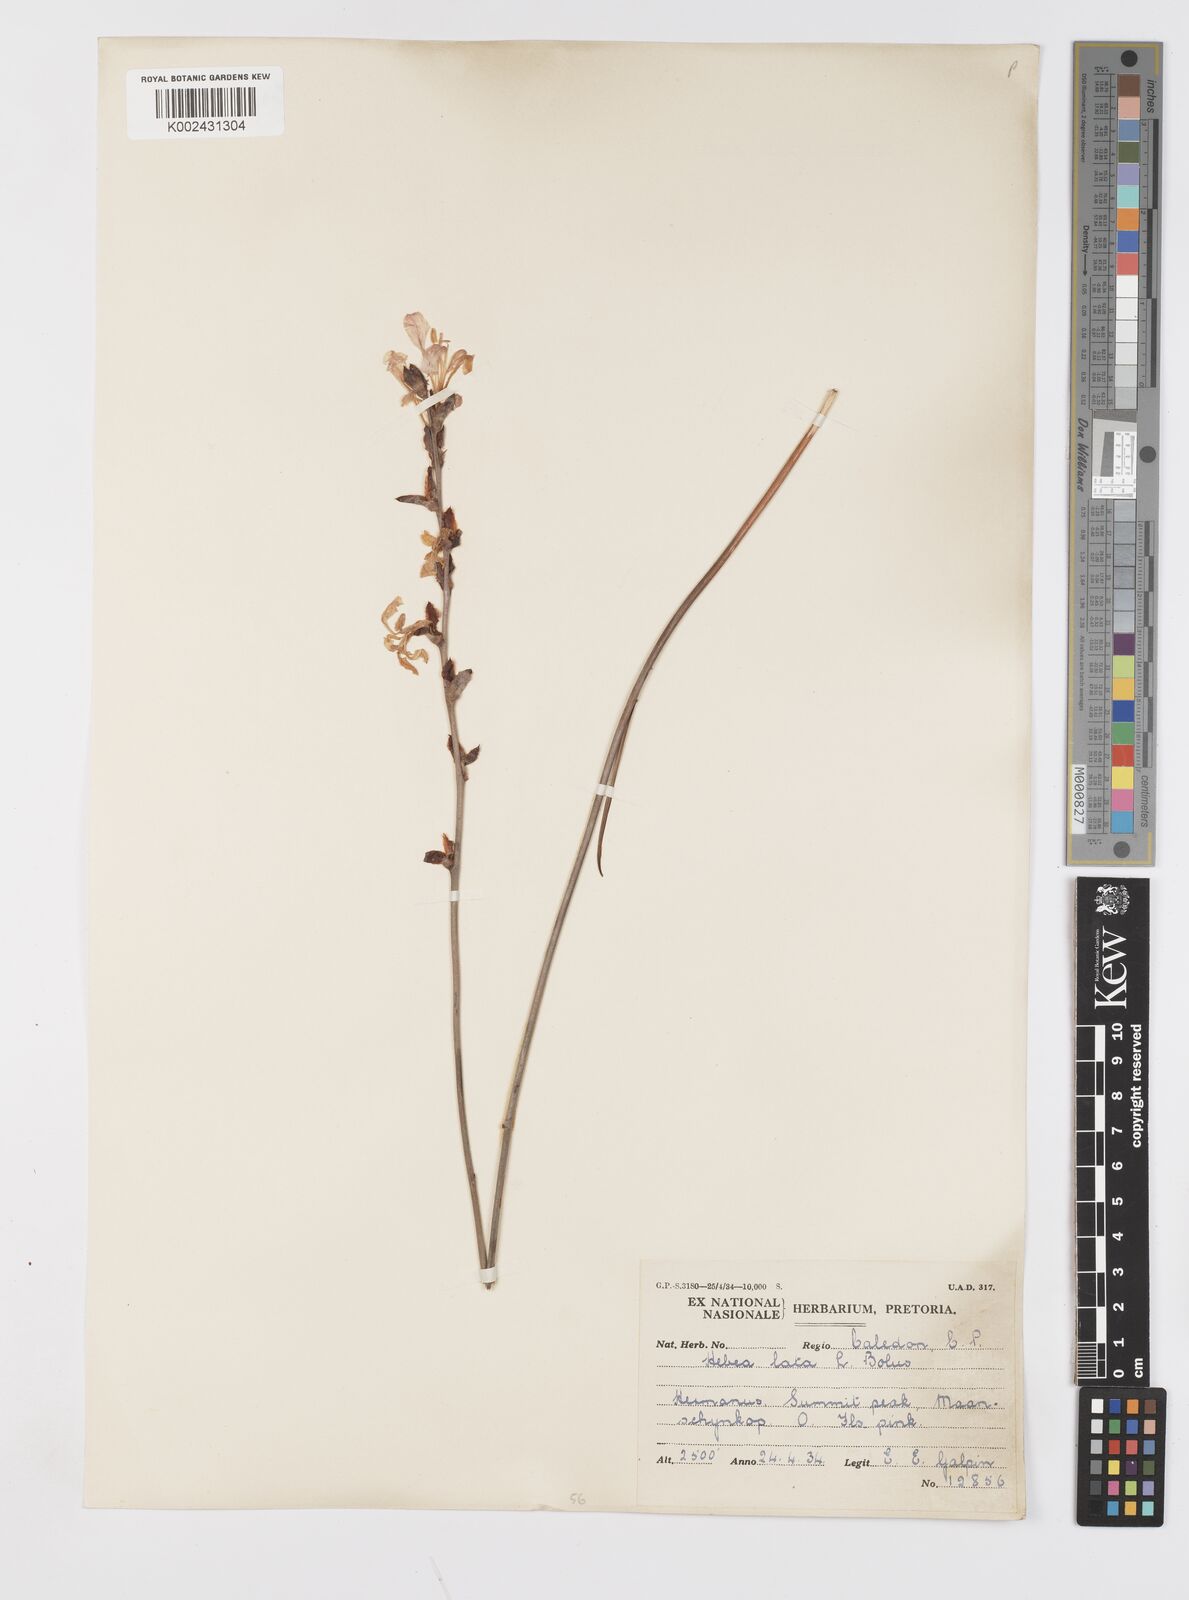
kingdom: Plantae
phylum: Tracheophyta
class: Liliopsida
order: Asparagales
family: Iridaceae
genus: Tritoniopsis
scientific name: Tritoniopsis lata
